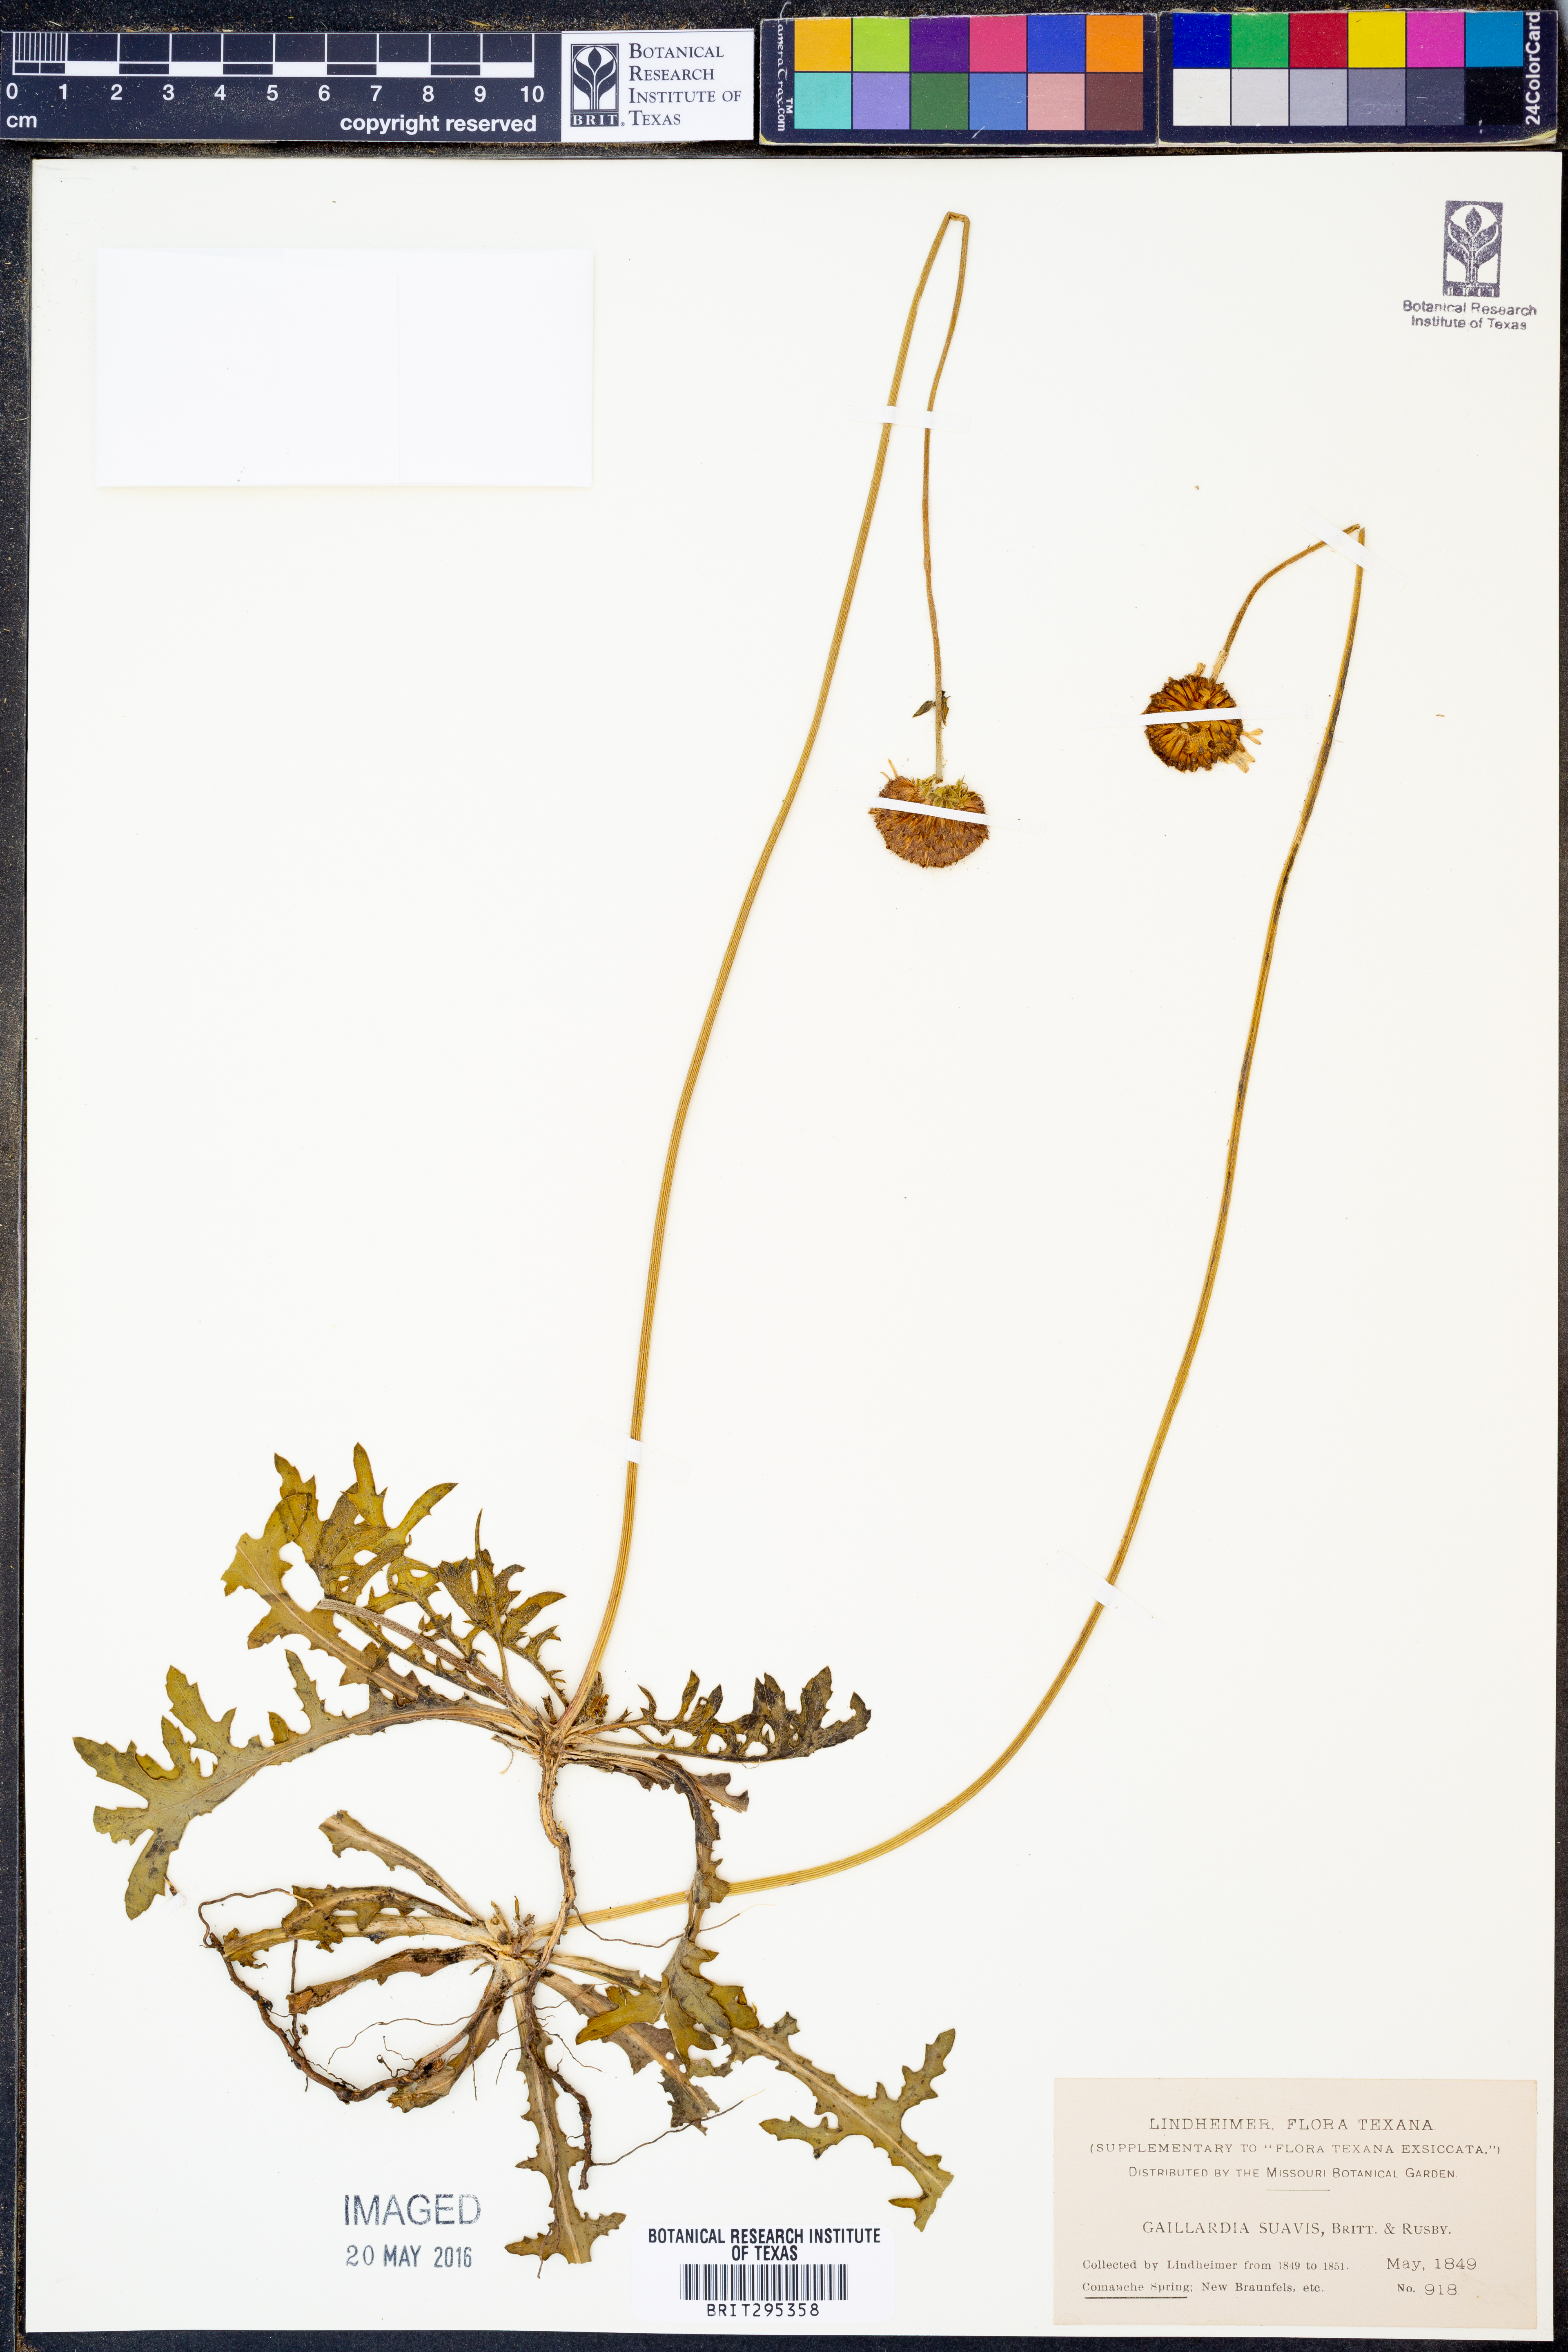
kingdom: Plantae
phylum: Tracheophyta
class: Magnoliopsida
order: Asterales
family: Asteraceae
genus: Gaillardia
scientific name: Gaillardia suavis
